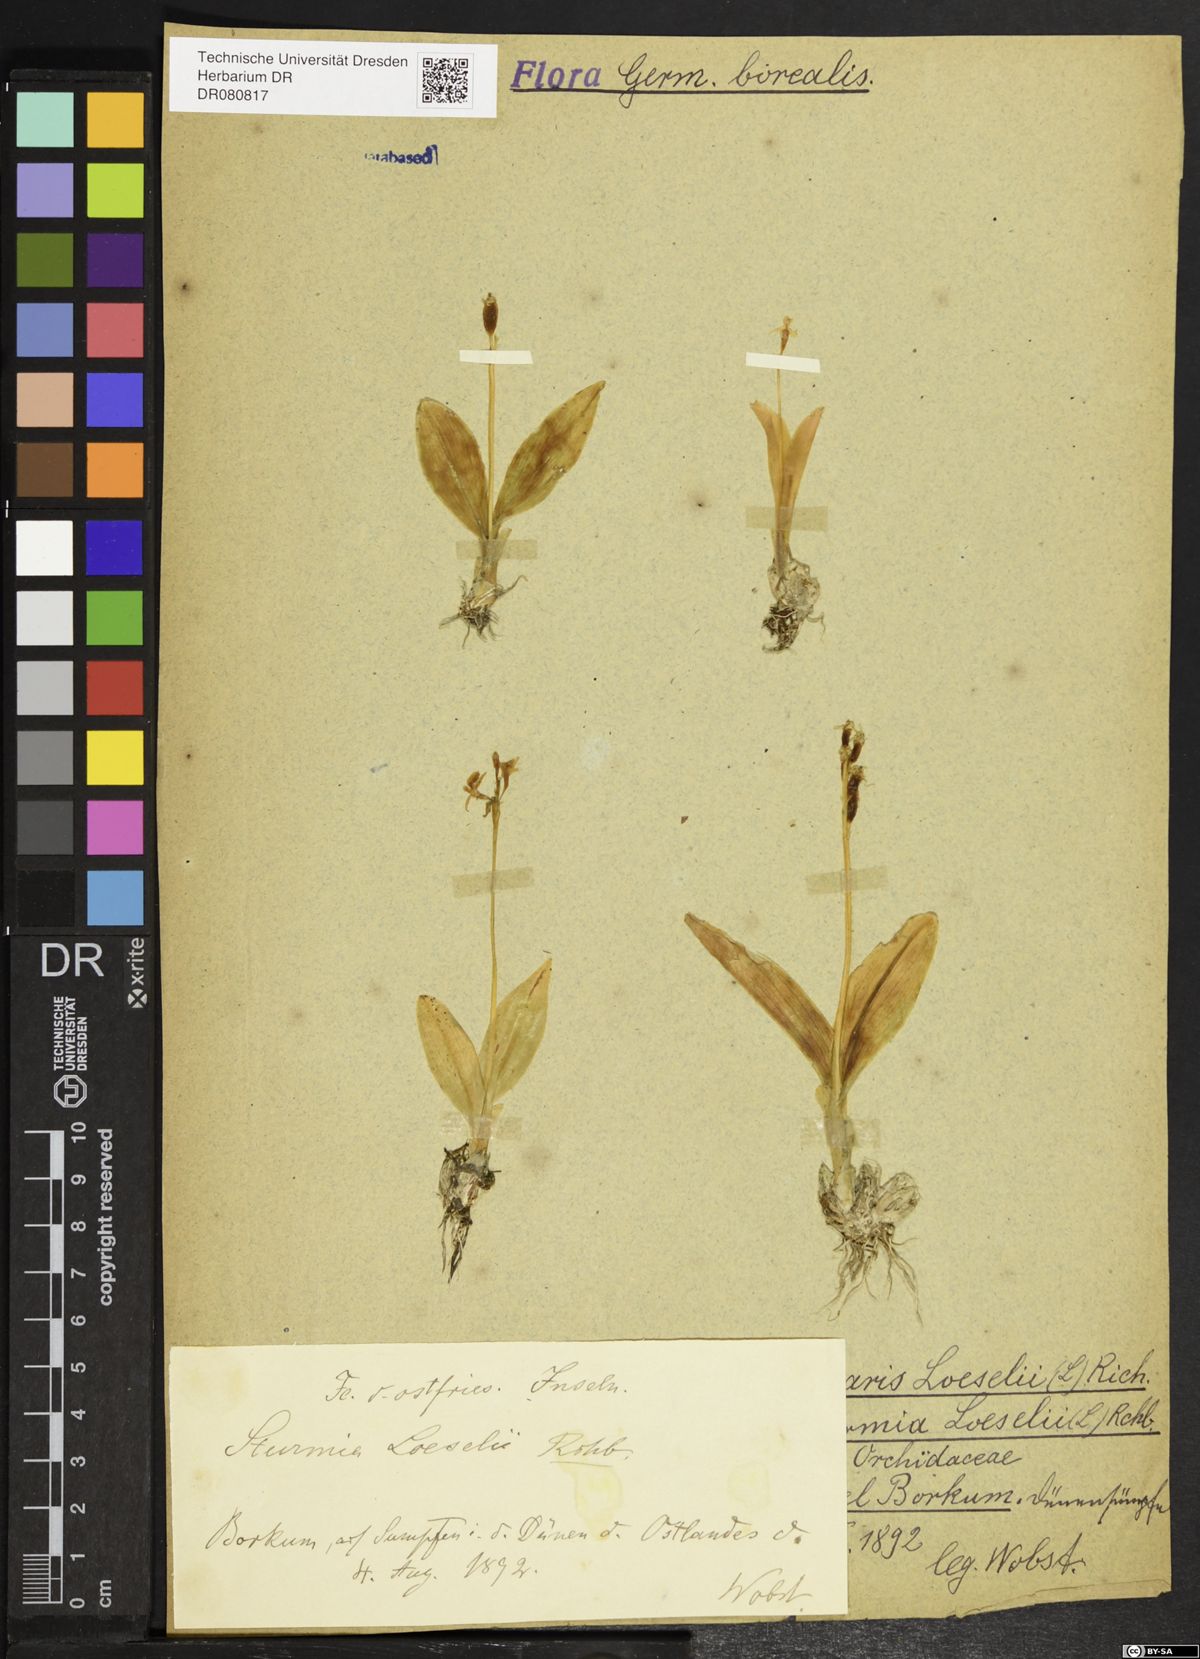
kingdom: Animalia
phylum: Arthropoda
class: Insecta
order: Coleoptera
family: Curculionidae
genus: Liparis
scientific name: Liparis loeselii
